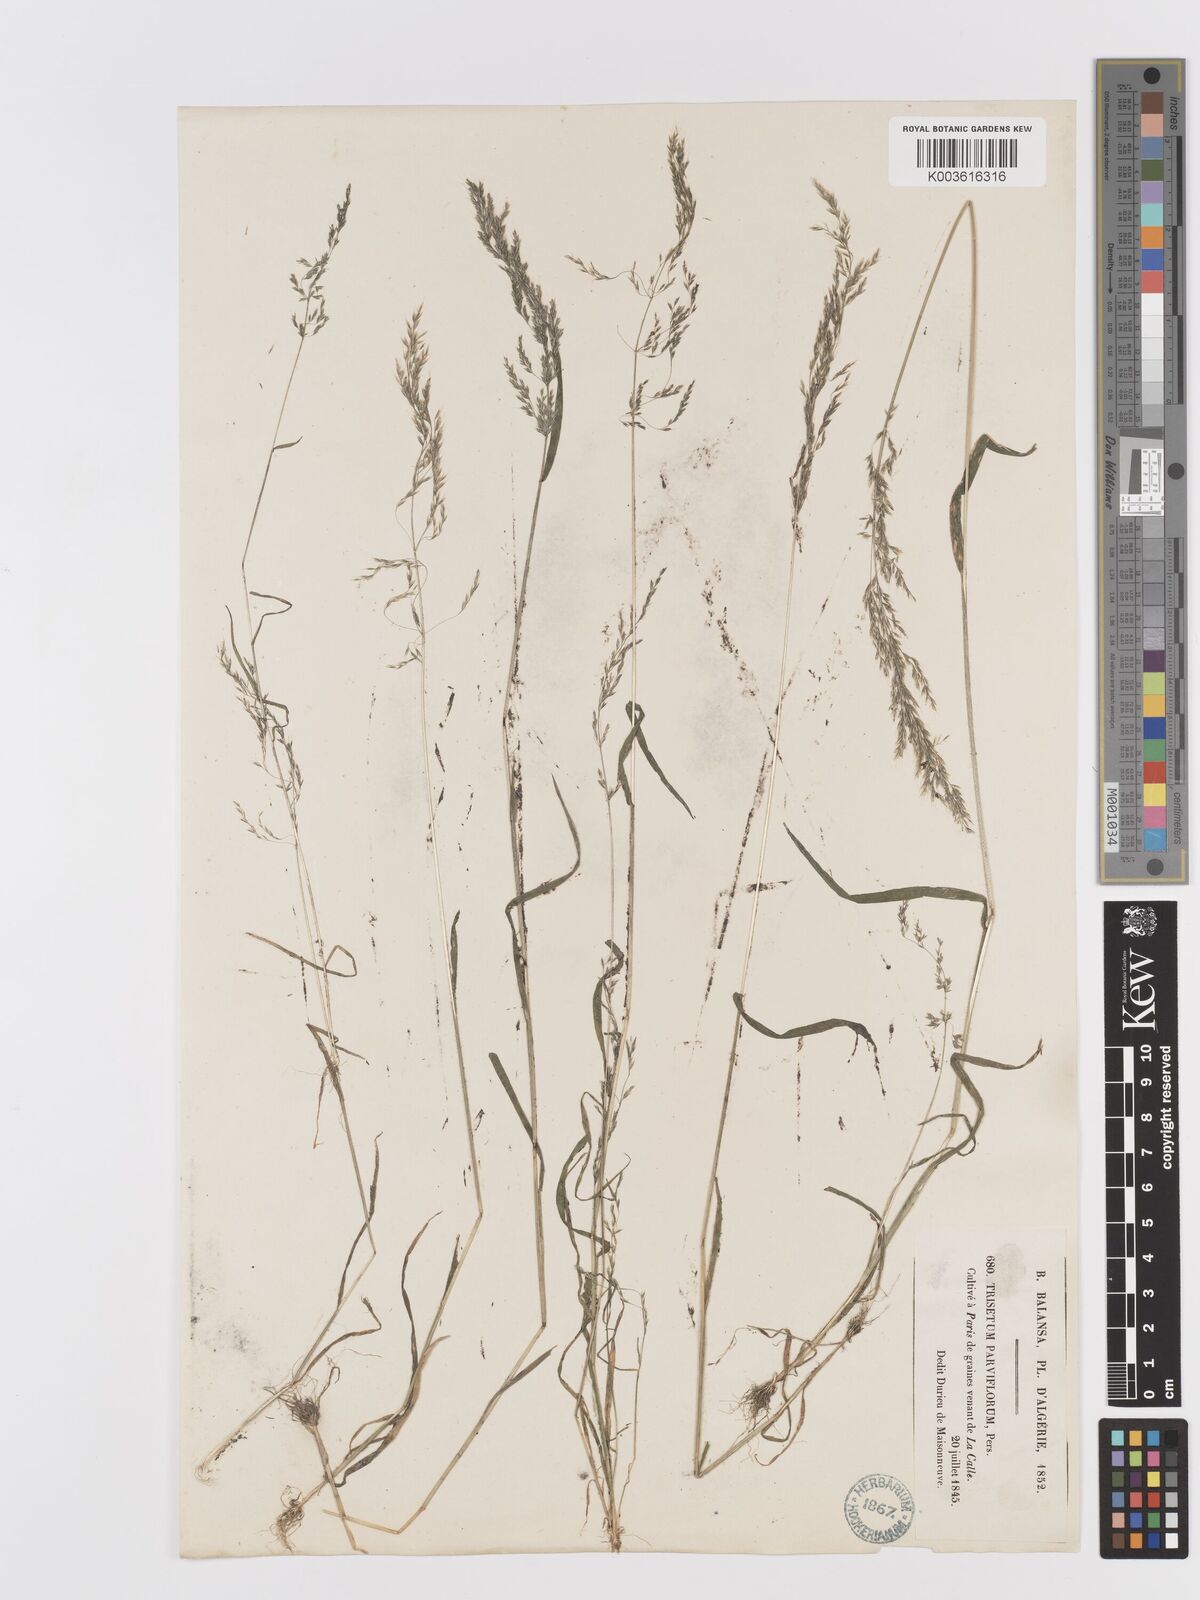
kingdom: Plantae
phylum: Tracheophyta
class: Liliopsida
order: Poales
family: Poaceae
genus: Trisetaria
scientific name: Trisetaria parviflora
